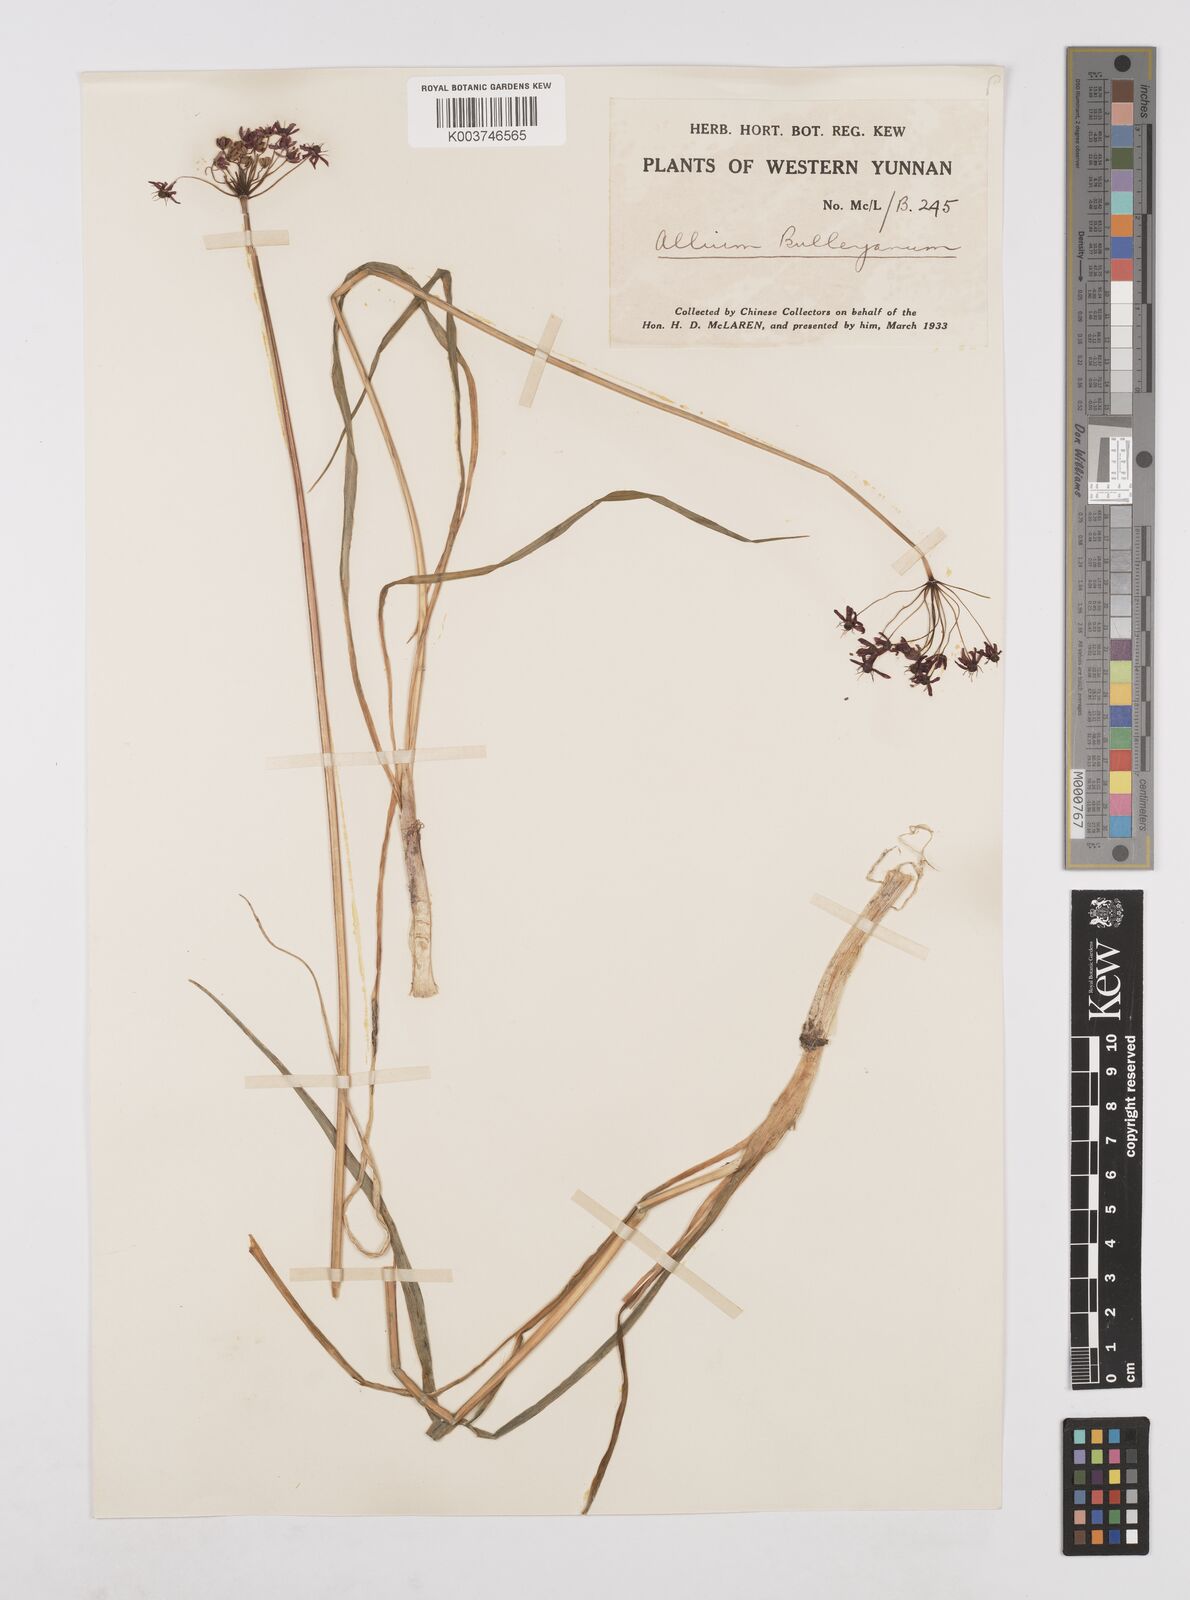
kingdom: Plantae
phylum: Tracheophyta
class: Liliopsida
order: Asparagales
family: Amaryllidaceae
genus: Allium
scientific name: Allium wallichii
